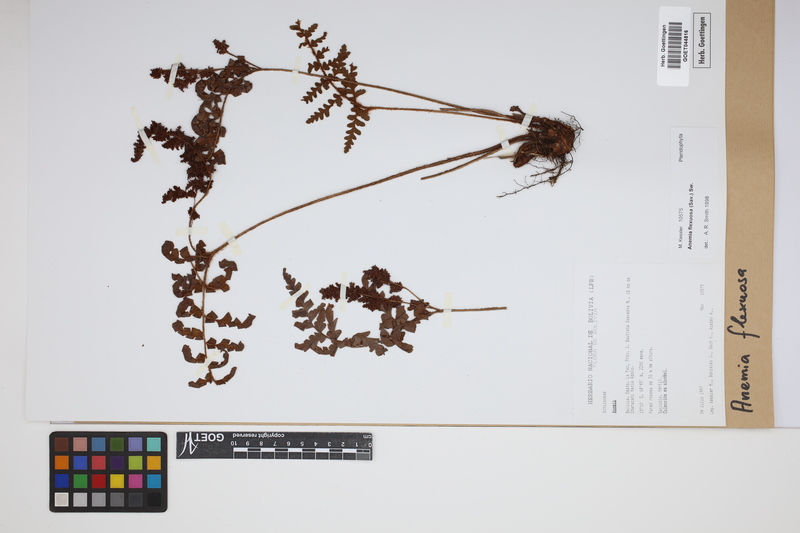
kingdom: Plantae
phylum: Tracheophyta
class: Polypodiopsida
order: Schizaeales
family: Anemiaceae
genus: Anemia
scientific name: Anemia flexuosa
